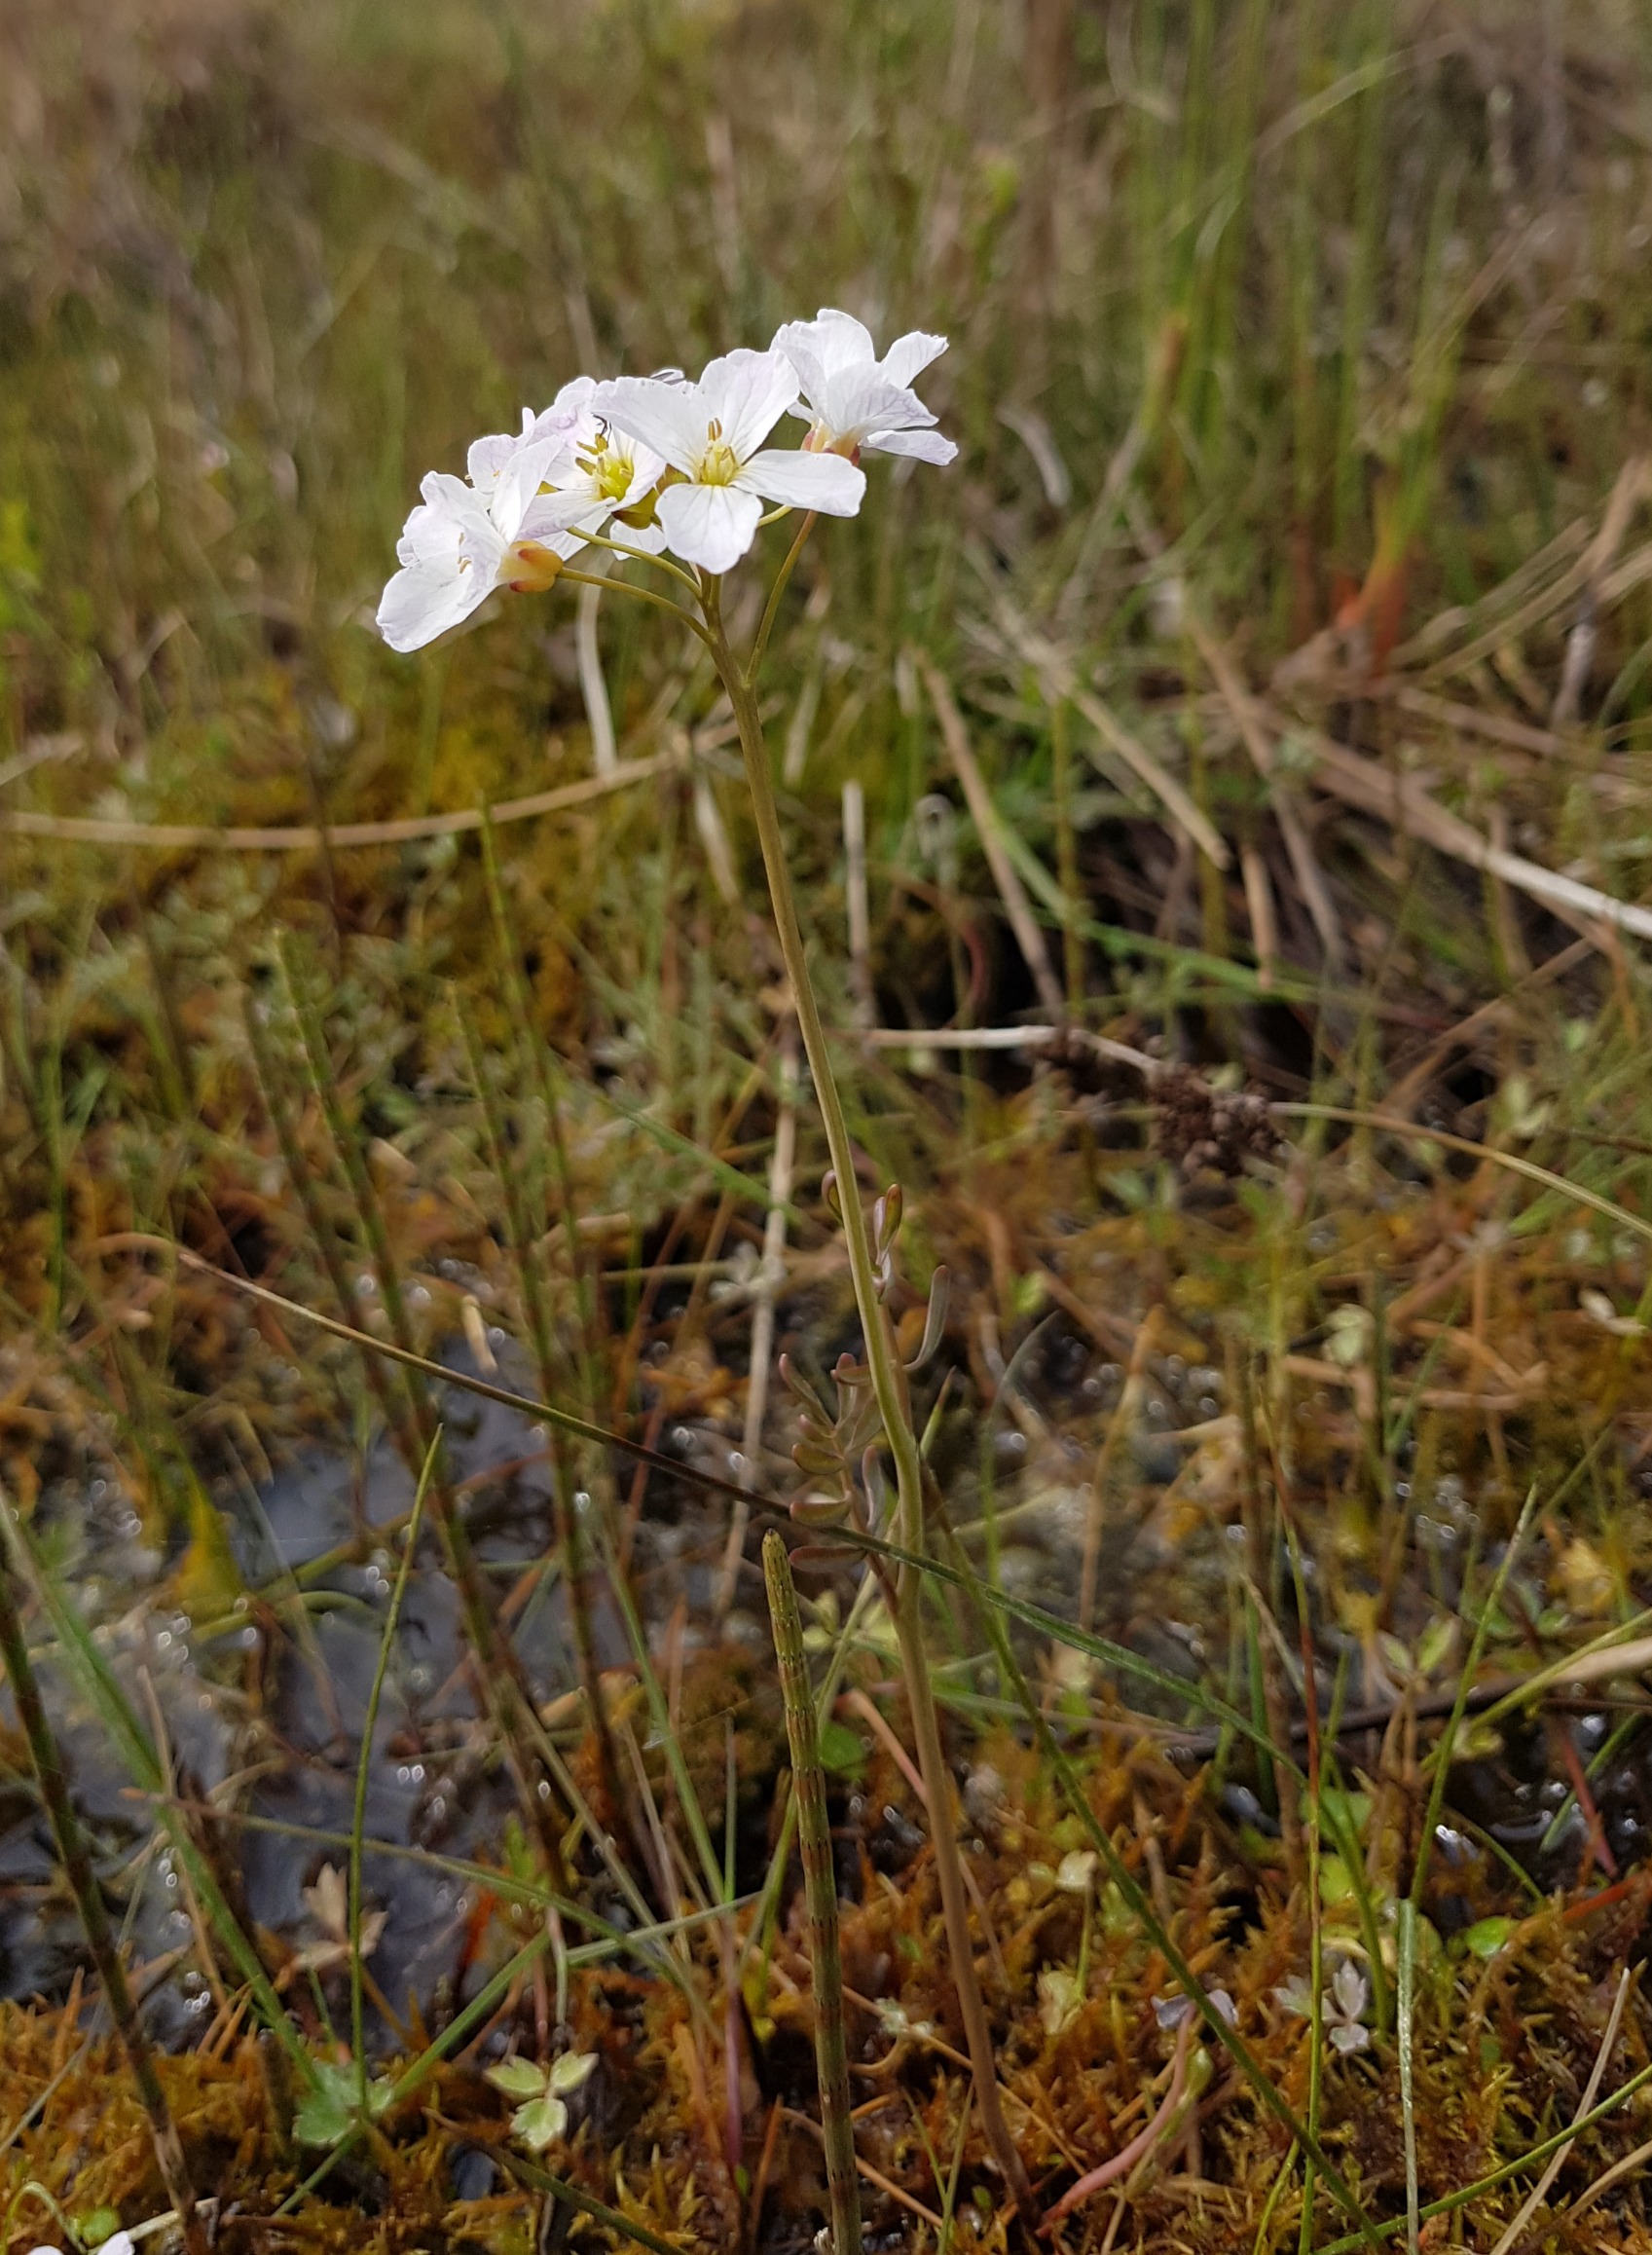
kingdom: Plantae
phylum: Tracheophyta
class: Magnoliopsida
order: Brassicales
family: Brassicaceae
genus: Cardamine
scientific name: Cardamine pratensis
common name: Sumpkarse
